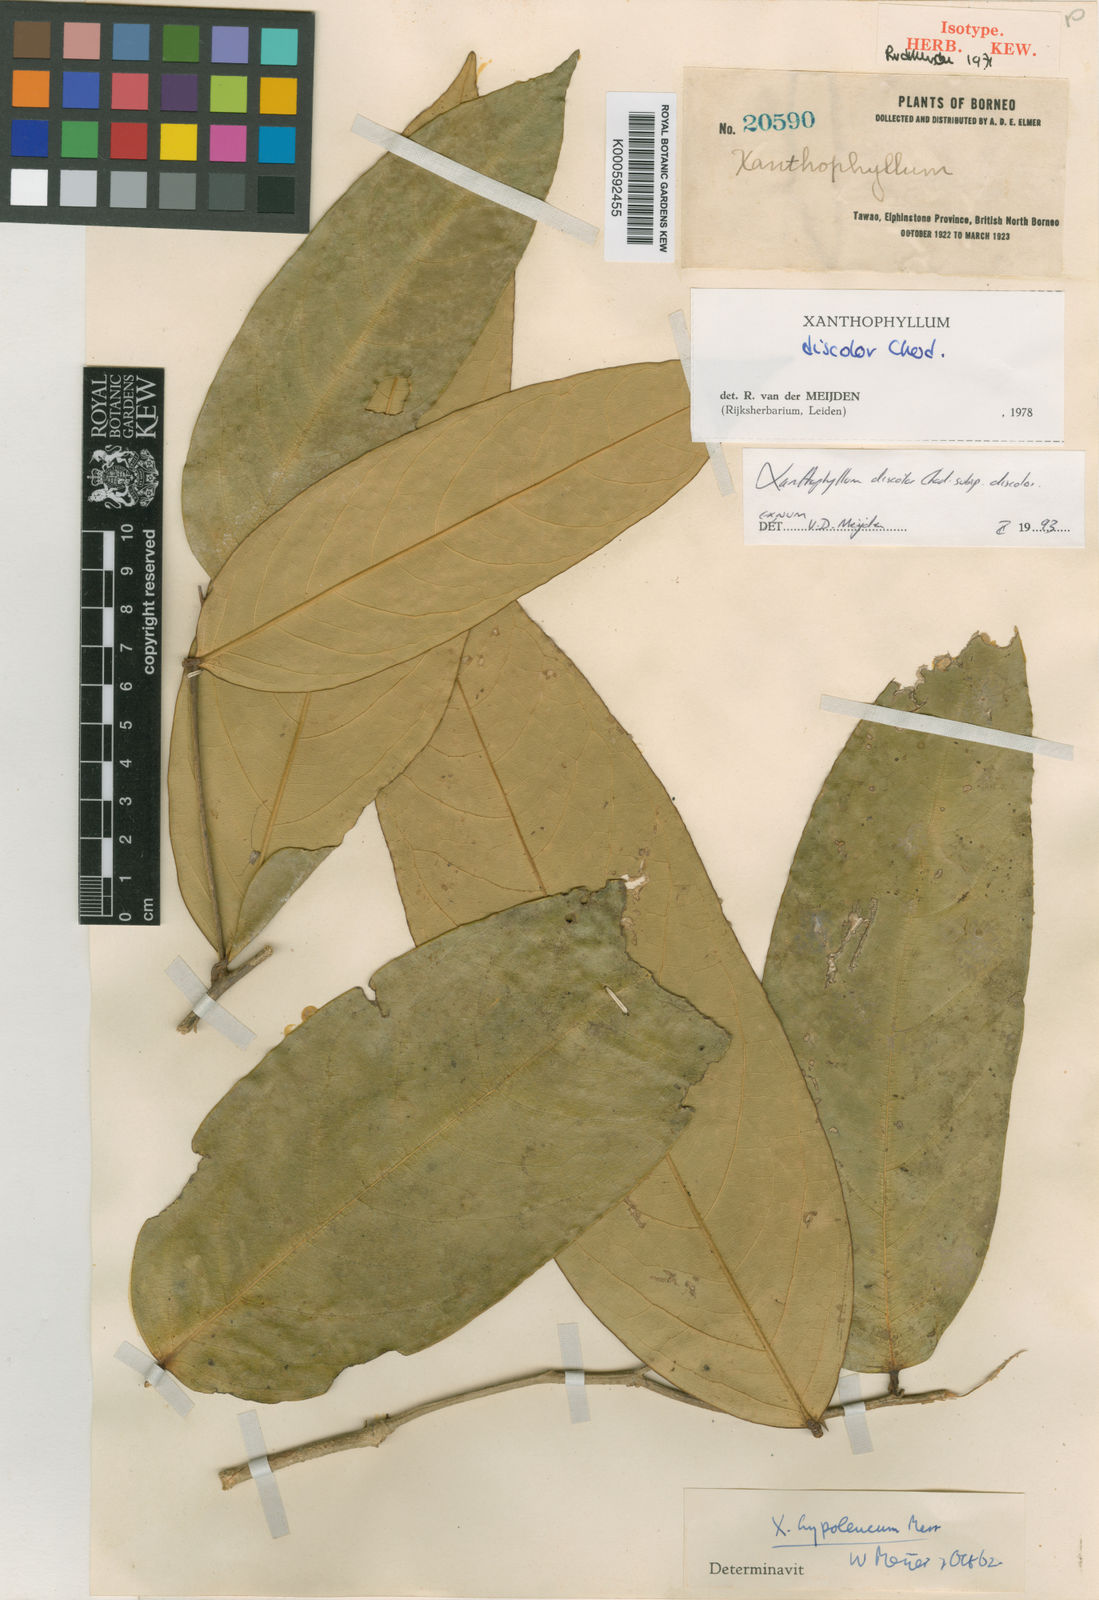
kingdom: Plantae
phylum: Tracheophyta
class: Magnoliopsida
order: Fabales
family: Polygalaceae
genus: Xanthophyllum
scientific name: Xanthophyllum discolor
